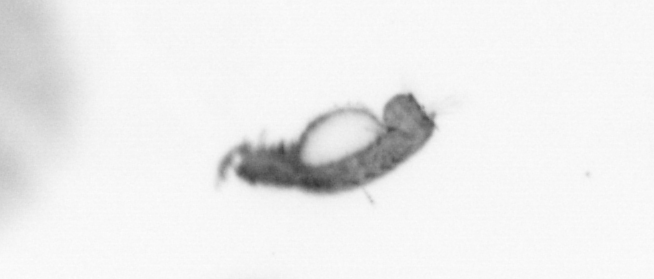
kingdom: Animalia
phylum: Annelida
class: Polychaeta
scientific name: Polychaeta
